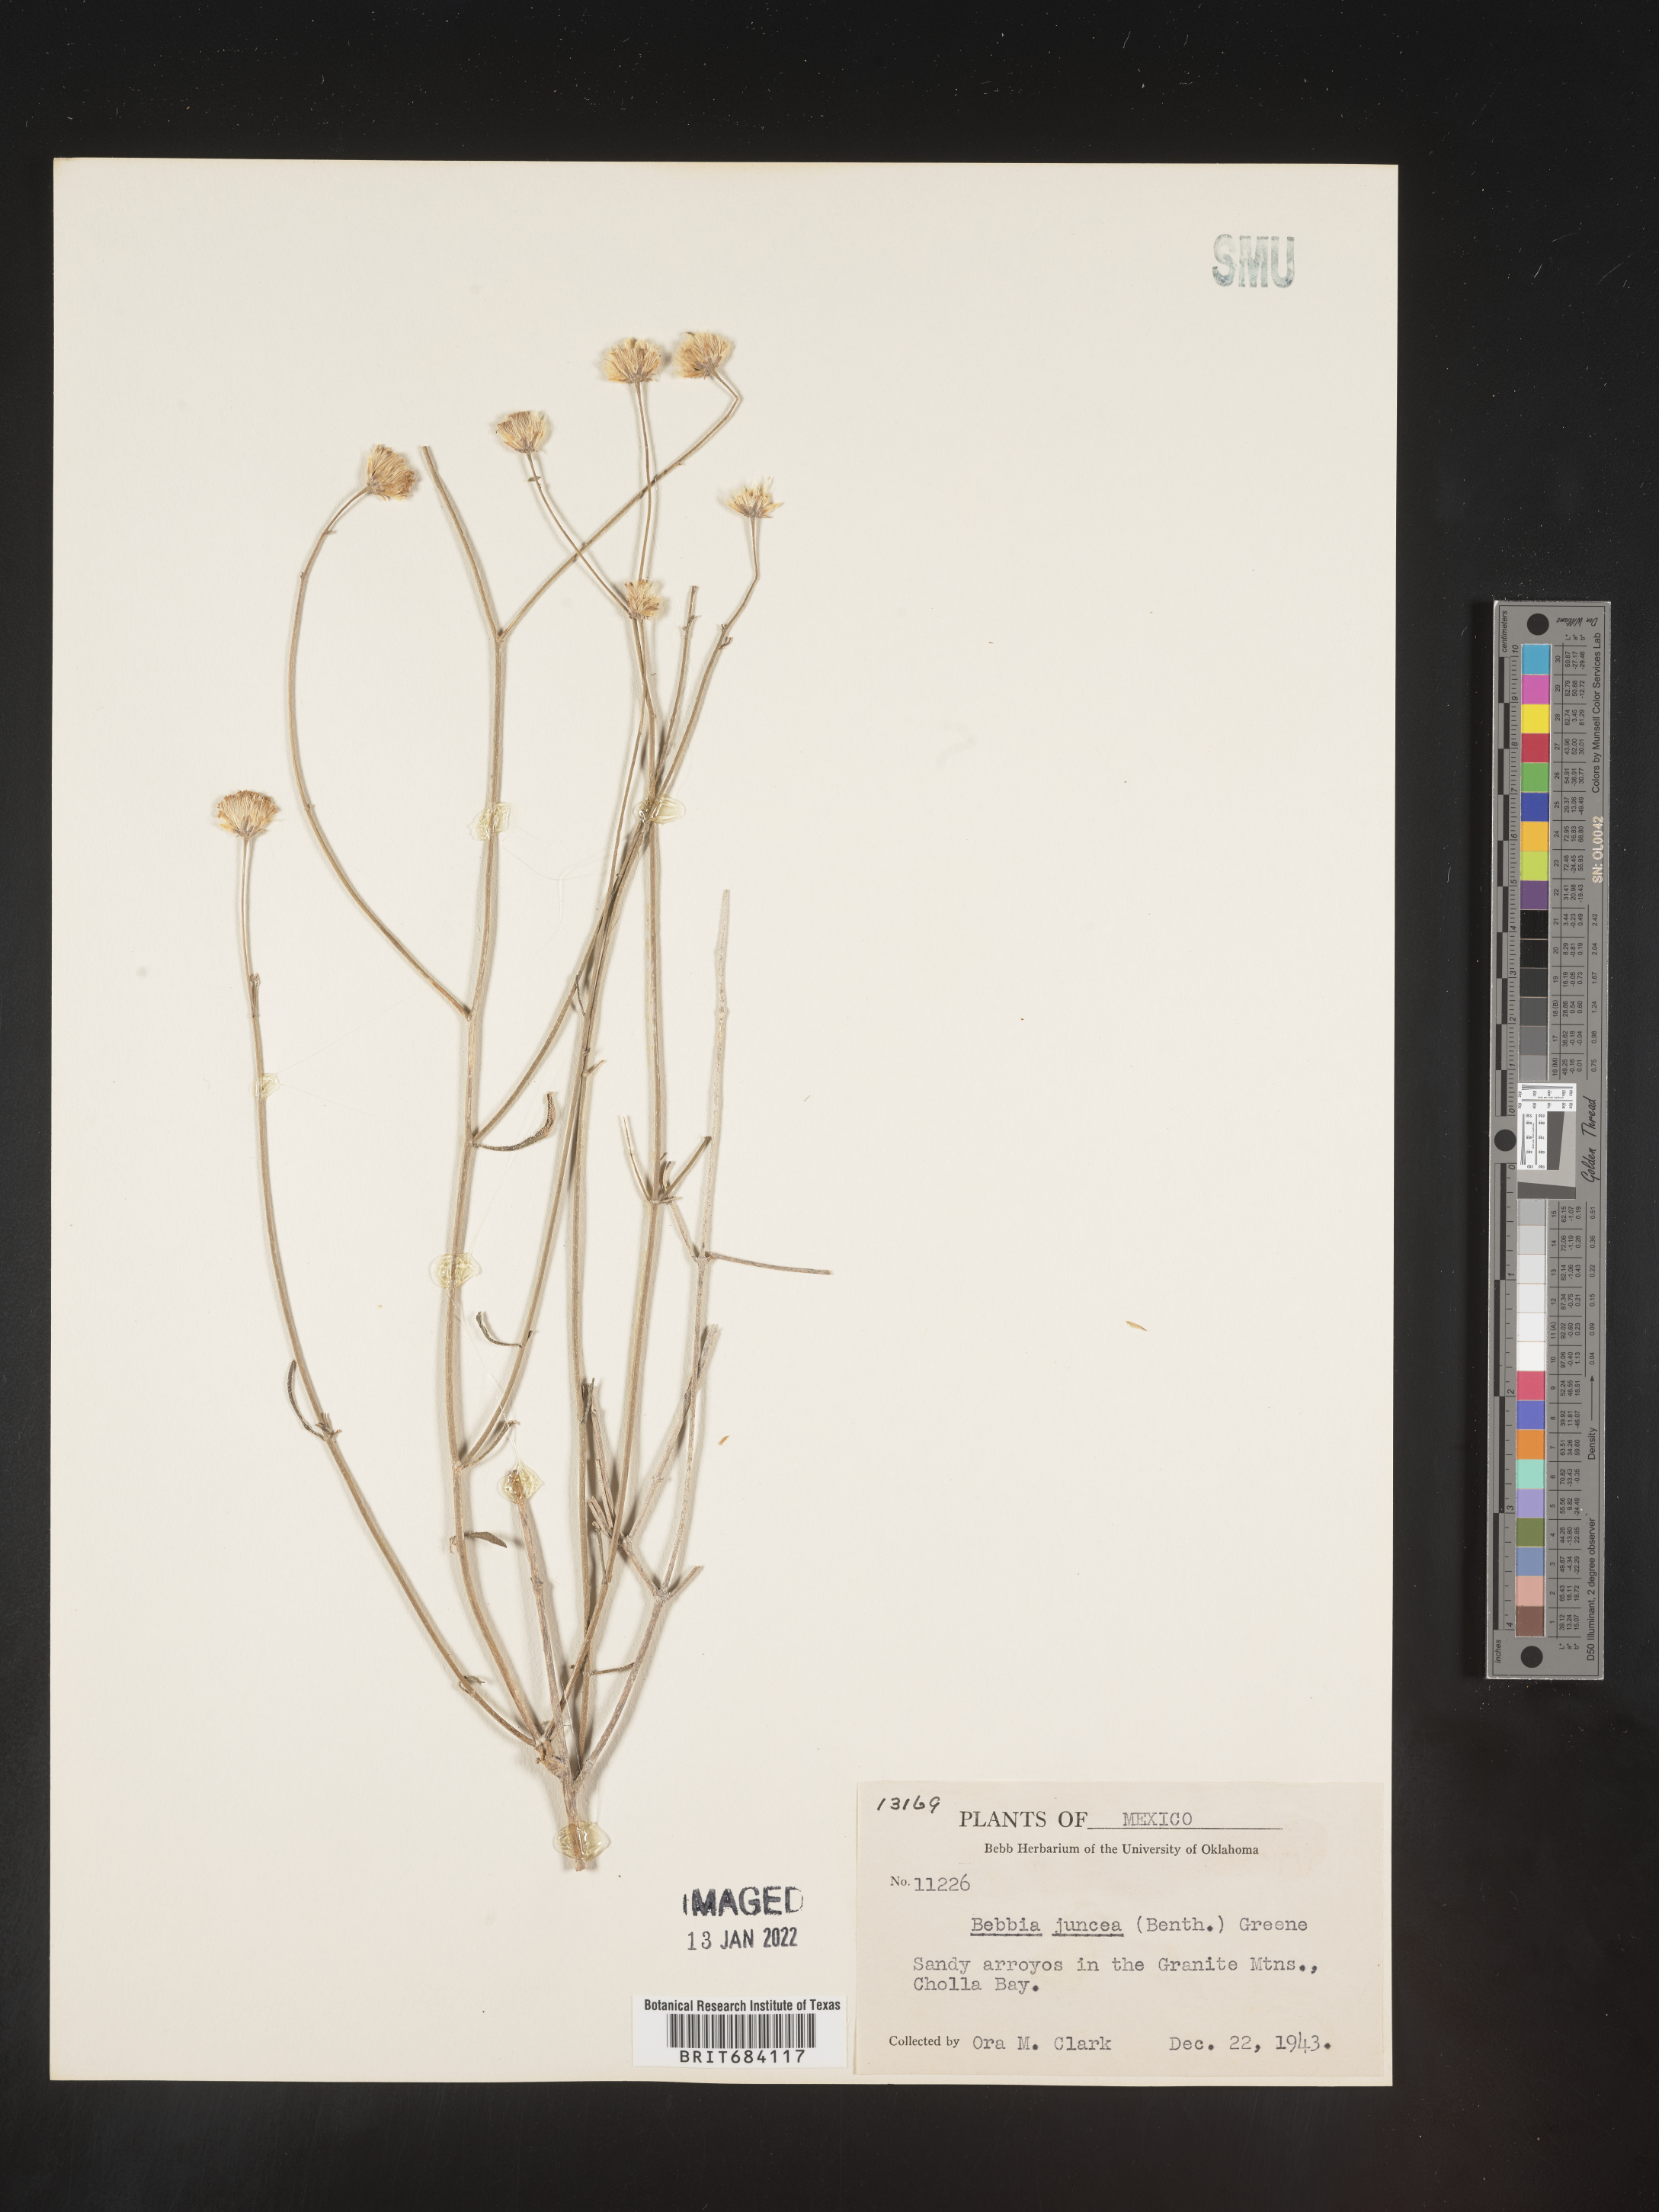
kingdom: Plantae
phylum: Tracheophyta
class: Magnoliopsida
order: Asterales
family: Asteraceae
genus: Bebbia
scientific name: Bebbia
